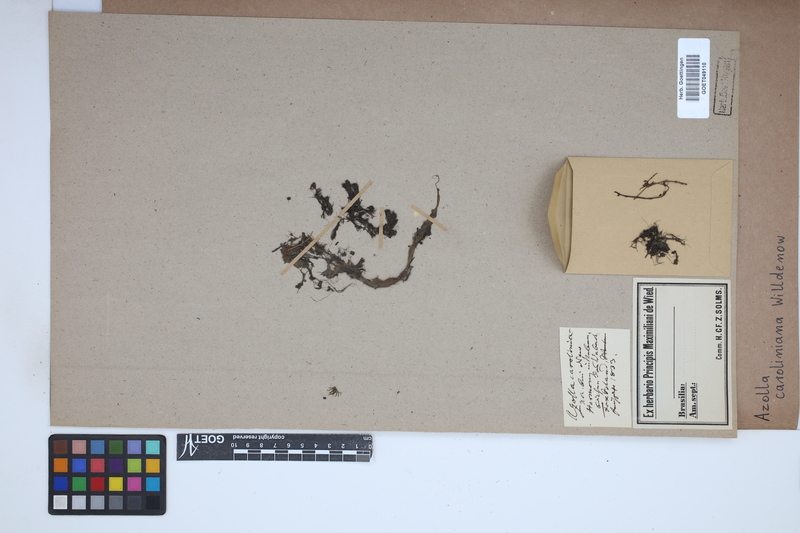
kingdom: Plantae
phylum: Tracheophyta
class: Polypodiopsida
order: Salviniales
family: Salviniaceae
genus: Azolla
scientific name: Azolla caroliniana
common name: Carolina mosquitofern
